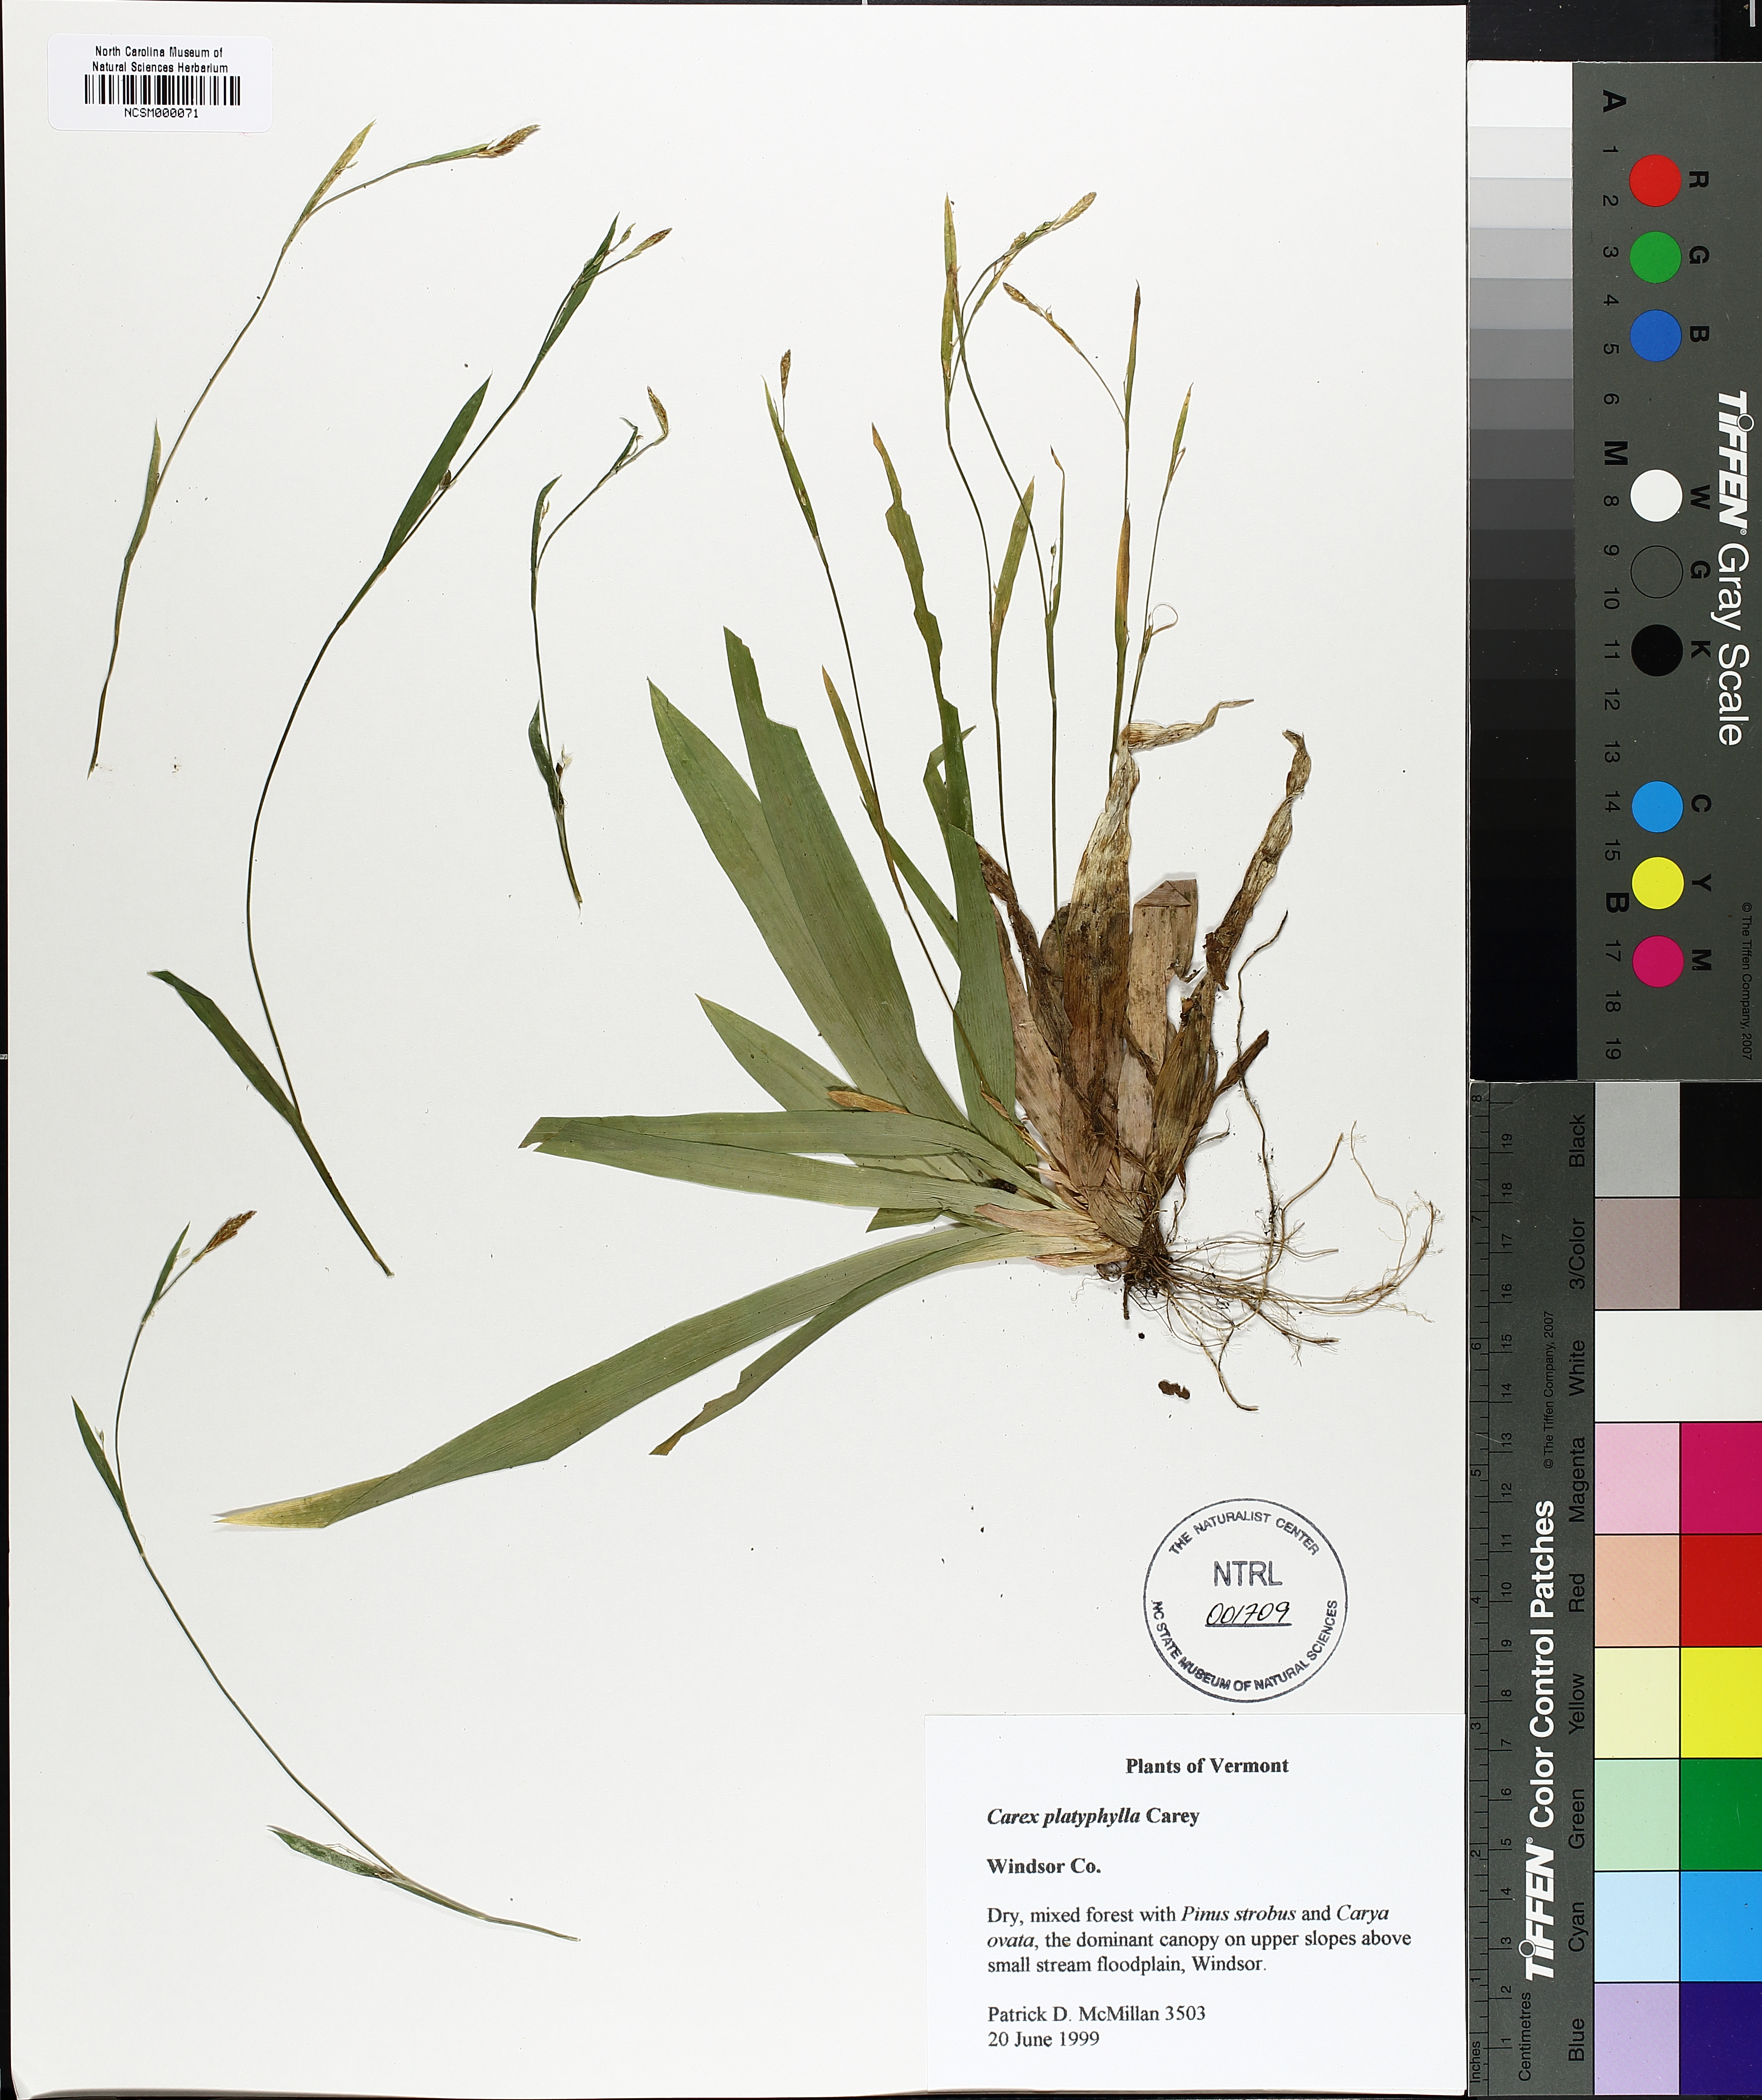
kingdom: Plantae
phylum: Tracheophyta
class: Liliopsida
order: Poales
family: Cyperaceae
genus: Carex
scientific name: Carex platyphylla
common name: Broad-leaved sedge
